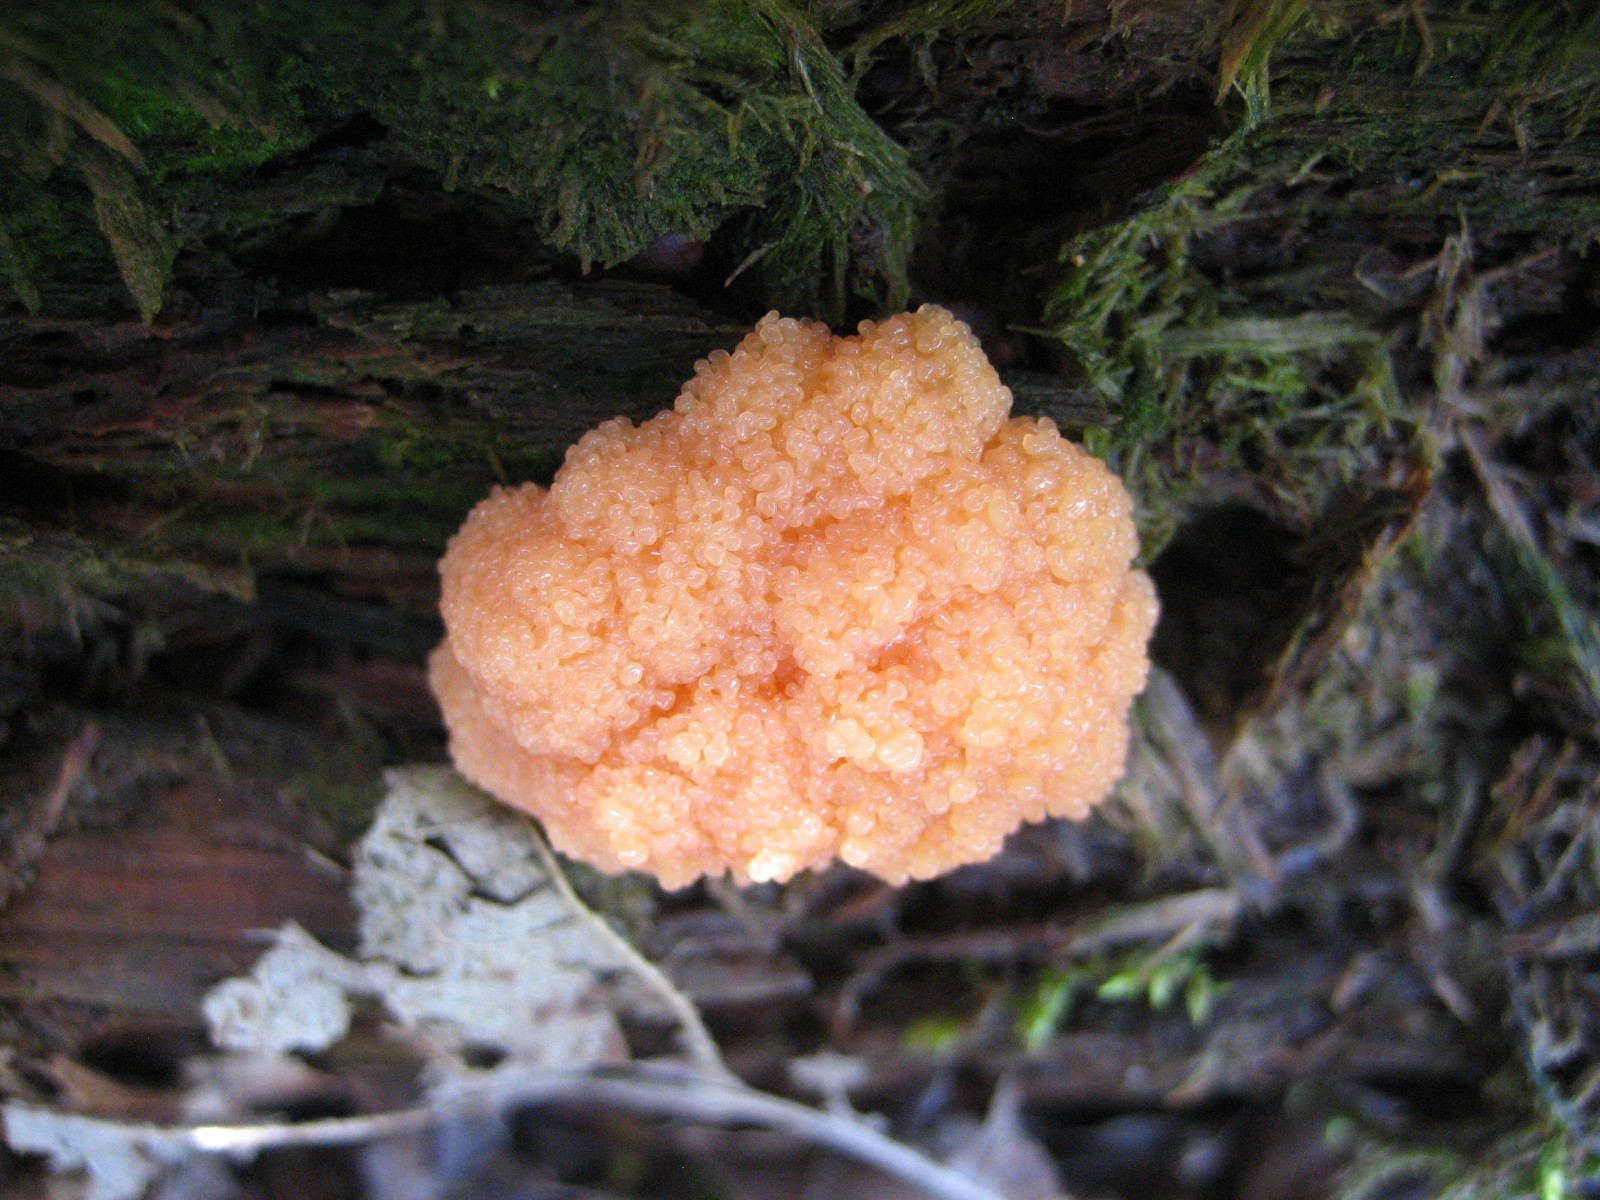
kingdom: Protozoa
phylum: Mycetozoa
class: Myxomycetes
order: Cribrariales
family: Tubiferaceae
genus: Tubifera
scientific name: Tubifera ferruginosa
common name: kanel-støvrør
